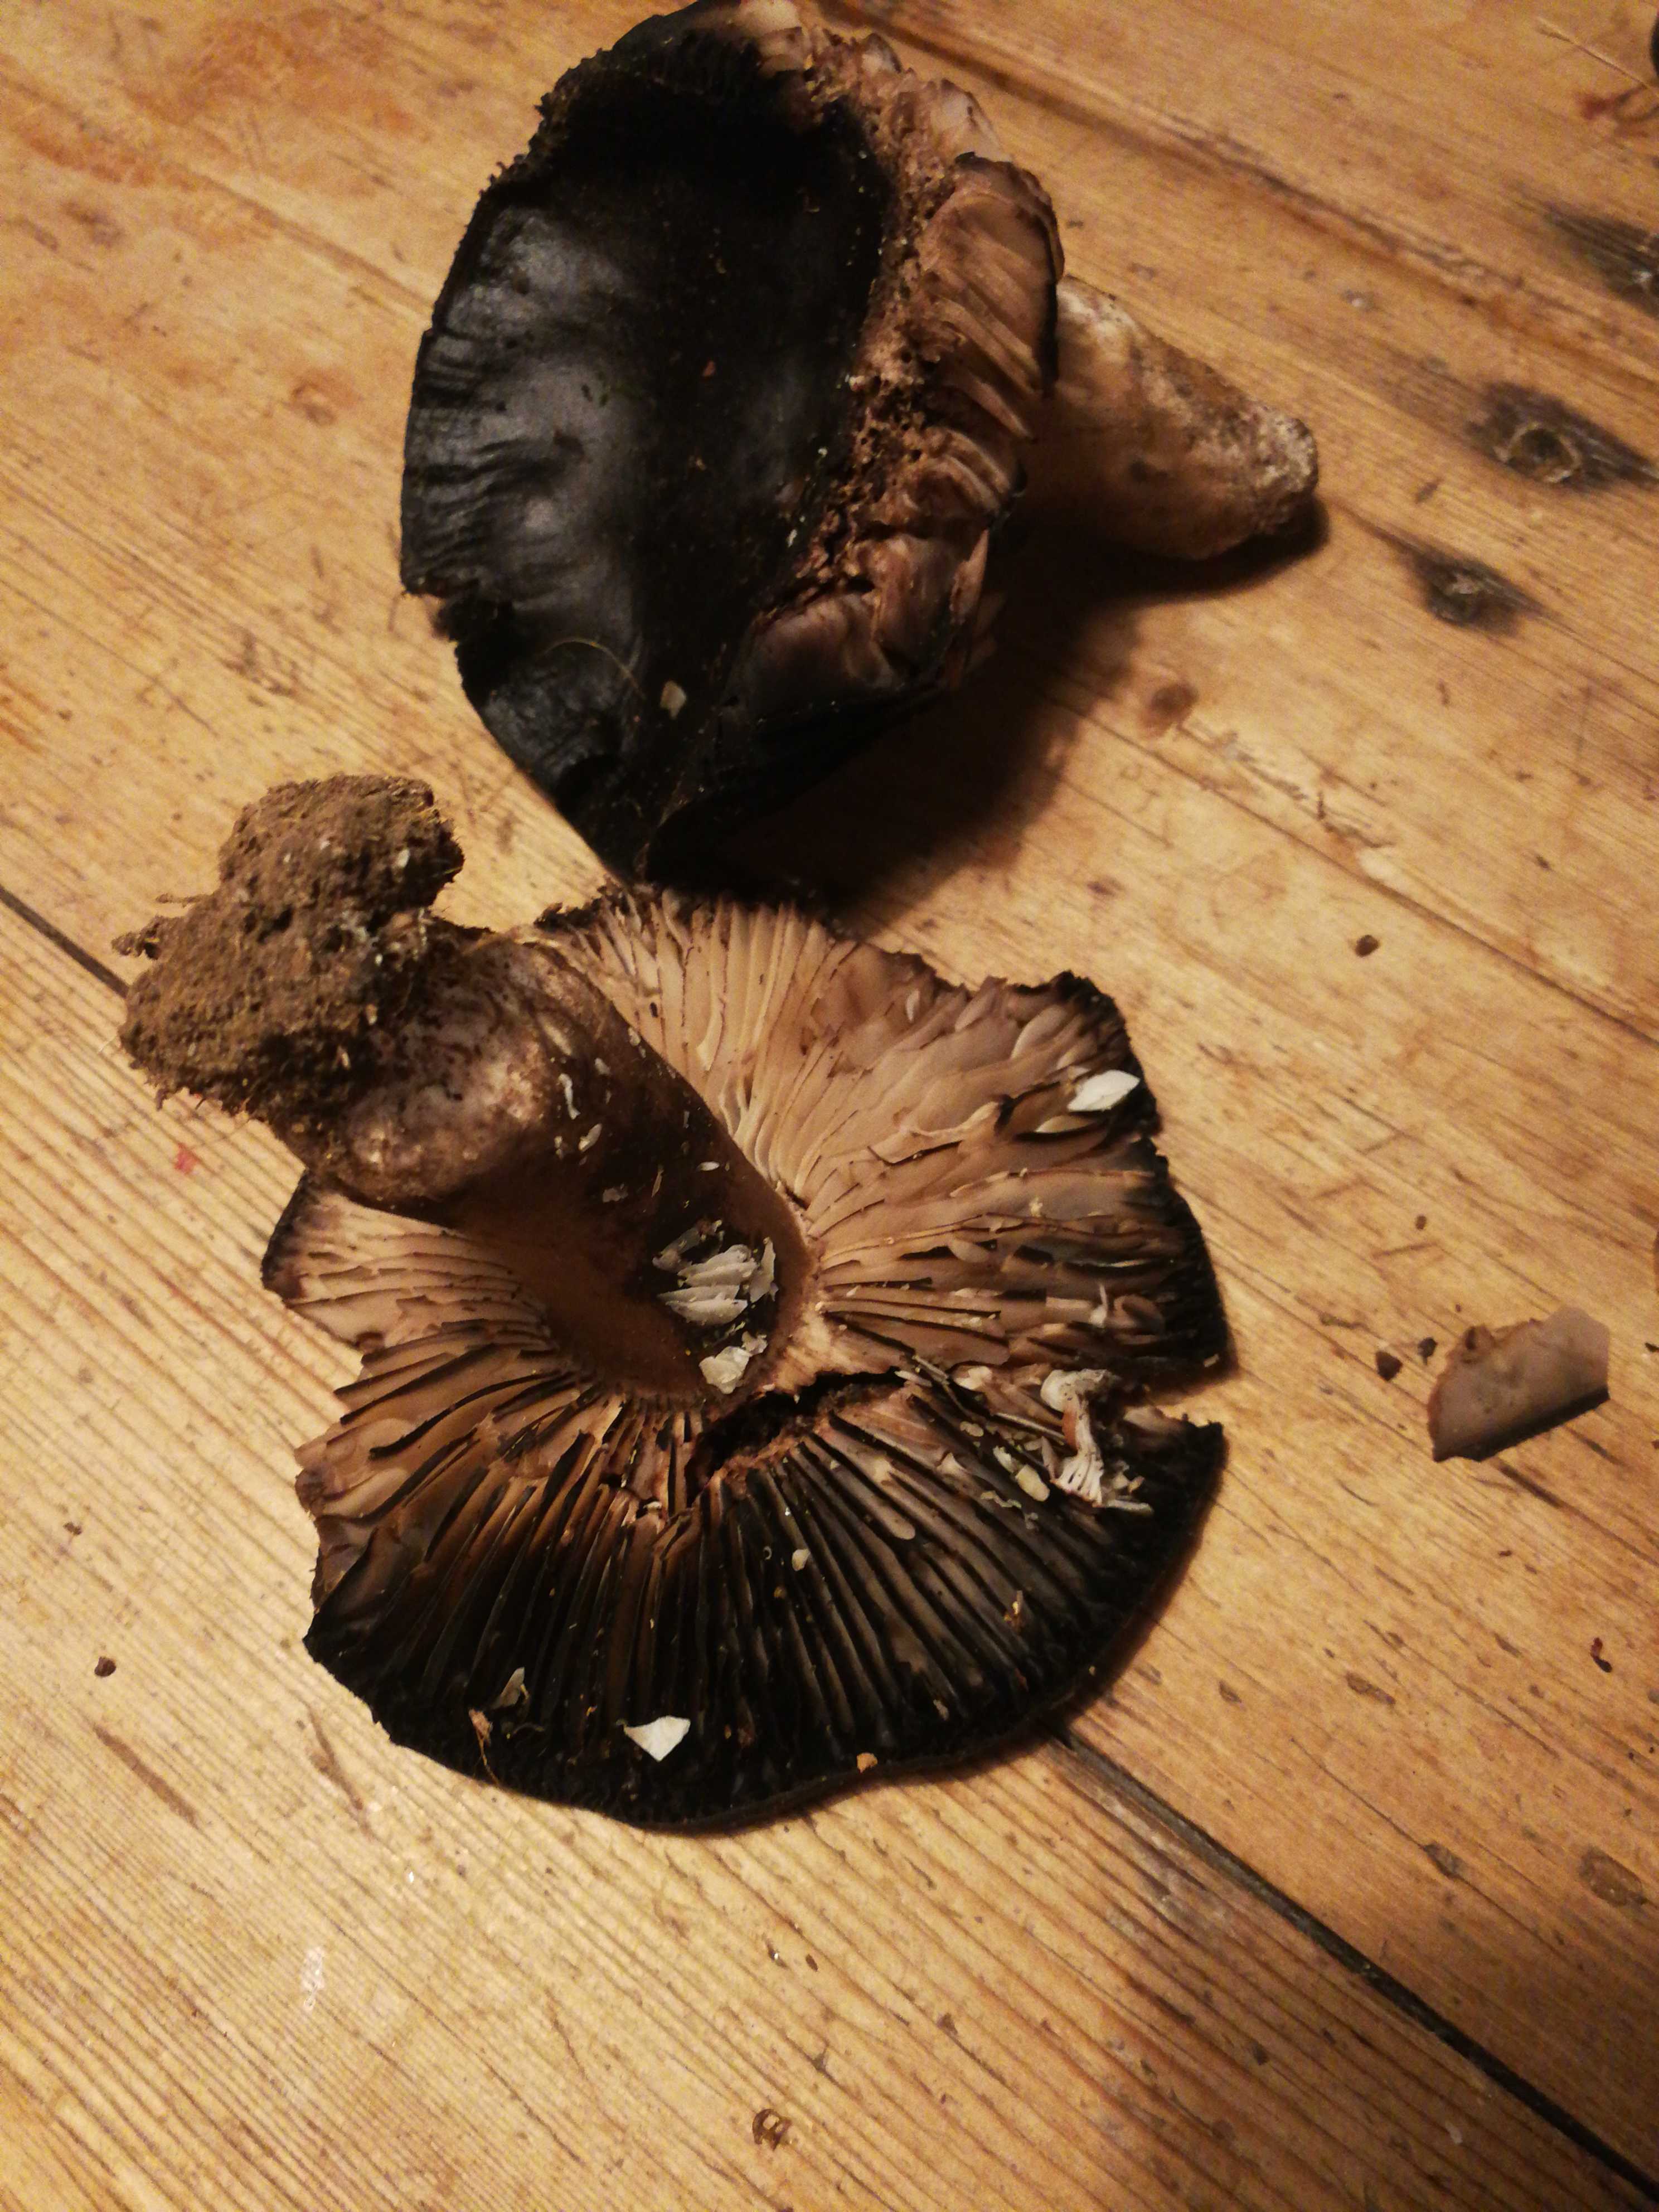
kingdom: Fungi
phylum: Basidiomycota
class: Agaricomycetes
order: Russulales
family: Russulaceae
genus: Russula
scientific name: Russula adusta
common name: sværtende skørhat
